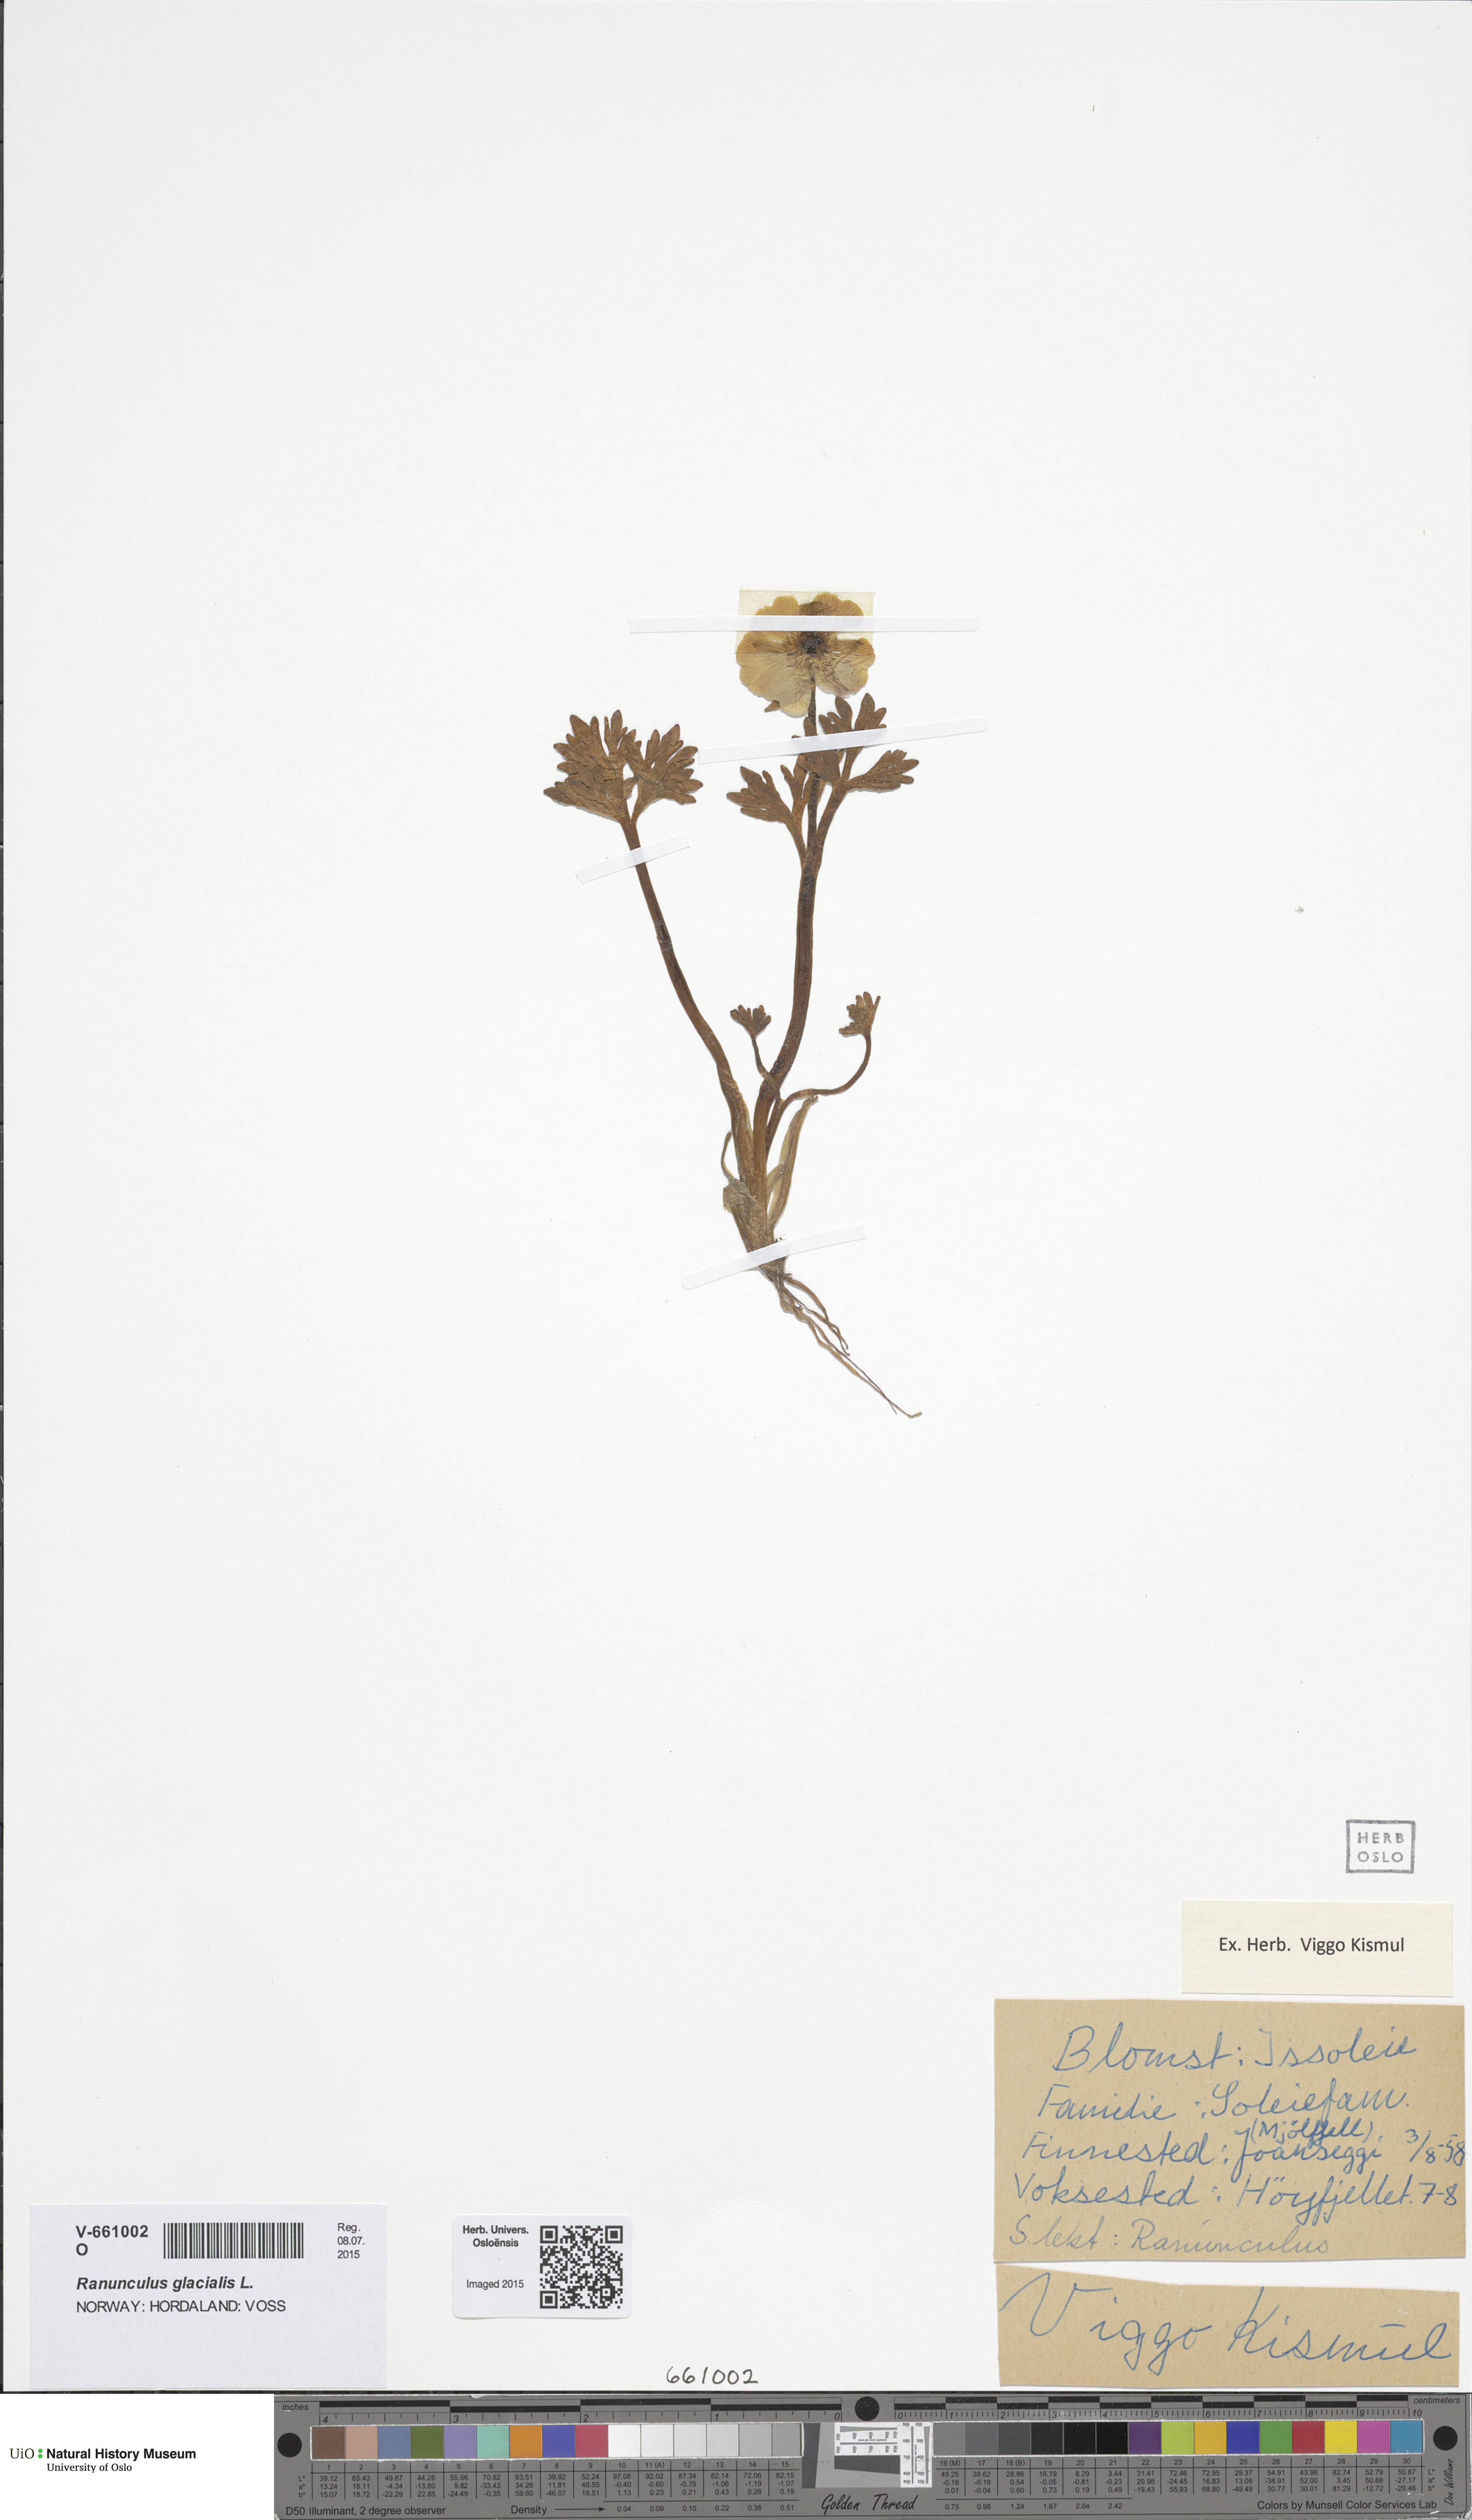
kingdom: Plantae
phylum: Tracheophyta
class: Magnoliopsida
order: Ranunculales
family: Ranunculaceae
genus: Ranunculus
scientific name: Ranunculus glacialis
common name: Glacier buttercup
